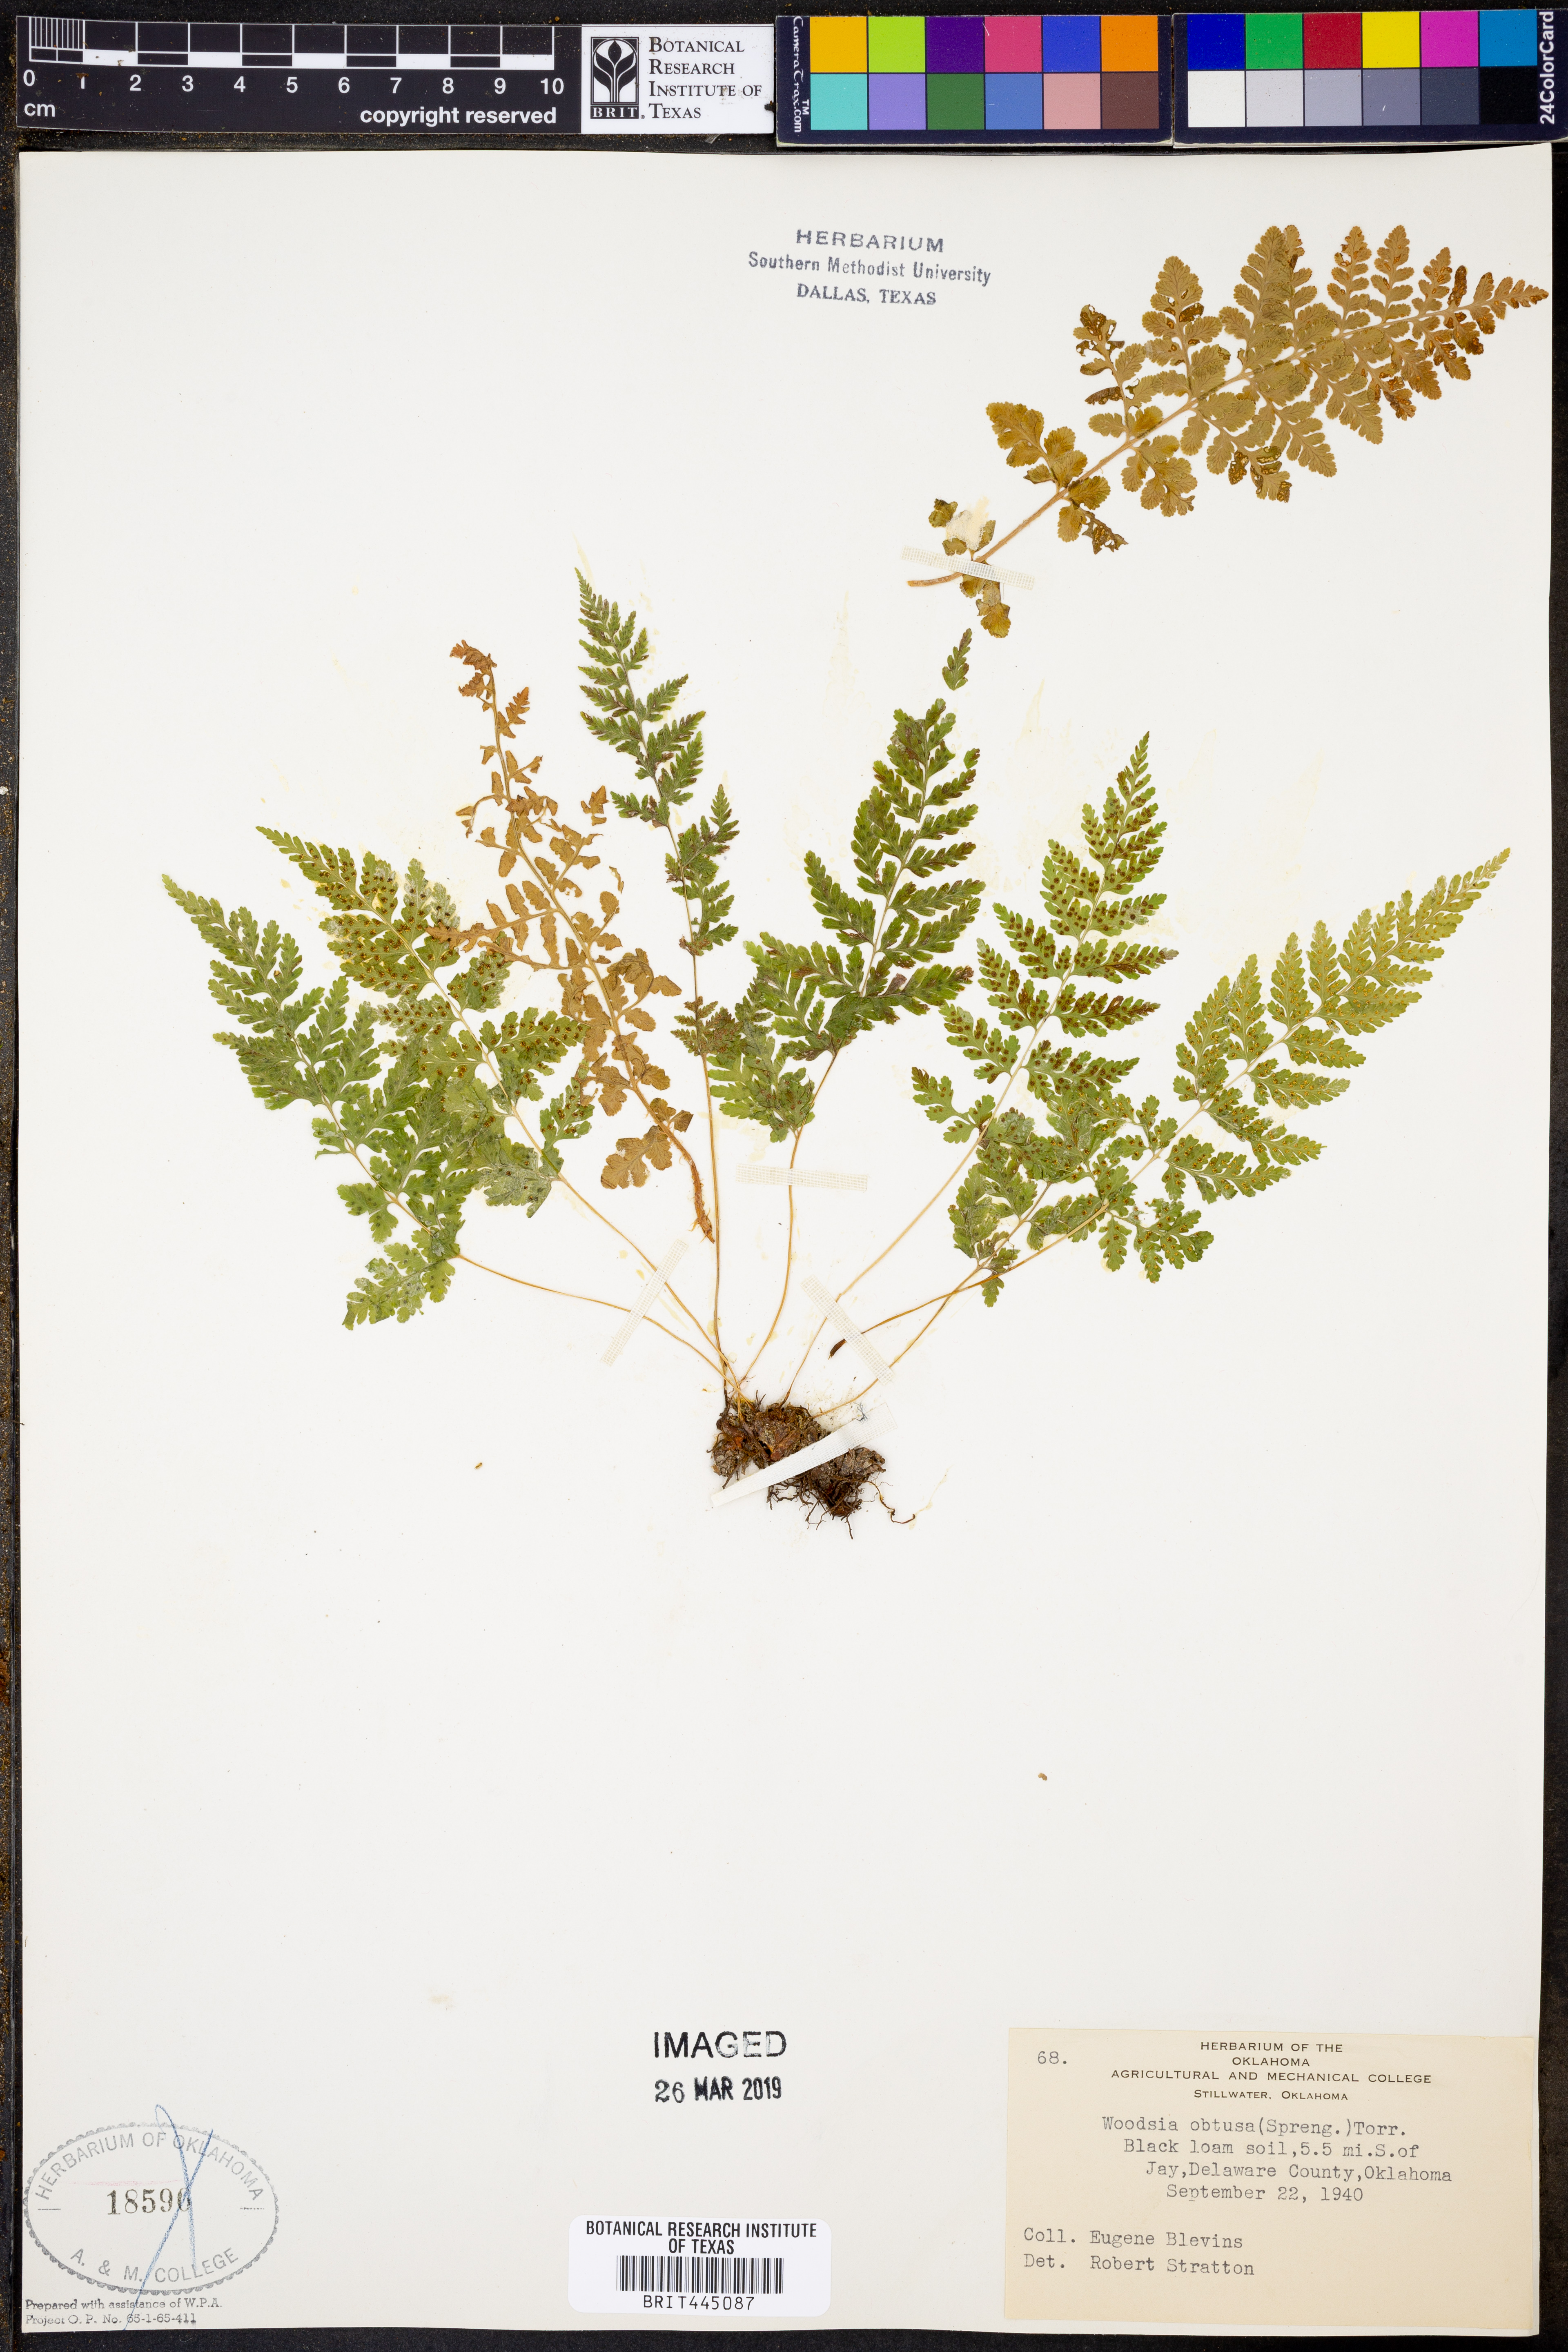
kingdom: Plantae
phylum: Tracheophyta
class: Polypodiopsida
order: Polypodiales
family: Woodsiaceae
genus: Physematium
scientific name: Physematium obtusum
